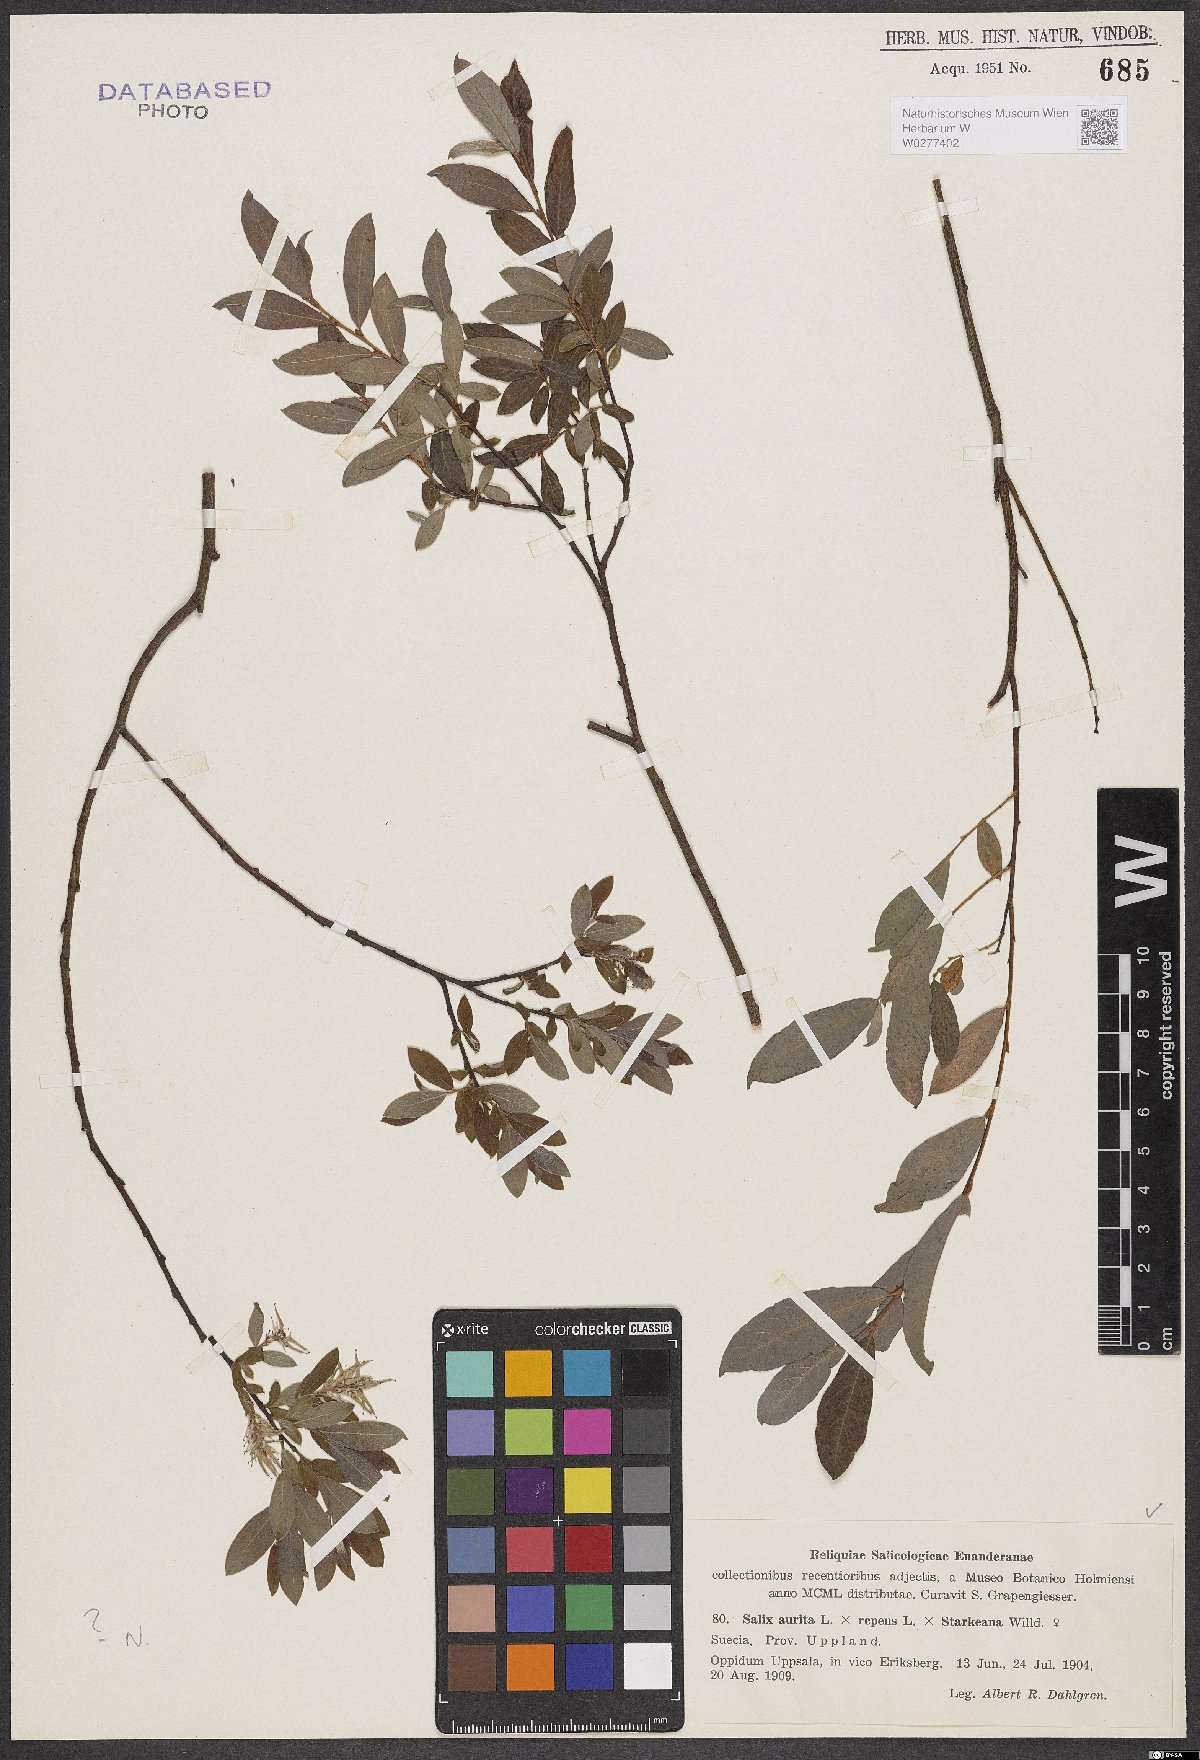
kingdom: Plantae
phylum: Tracheophyta
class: Magnoliopsida
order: Malpighiales
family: Salicaceae
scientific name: Salicaceae
